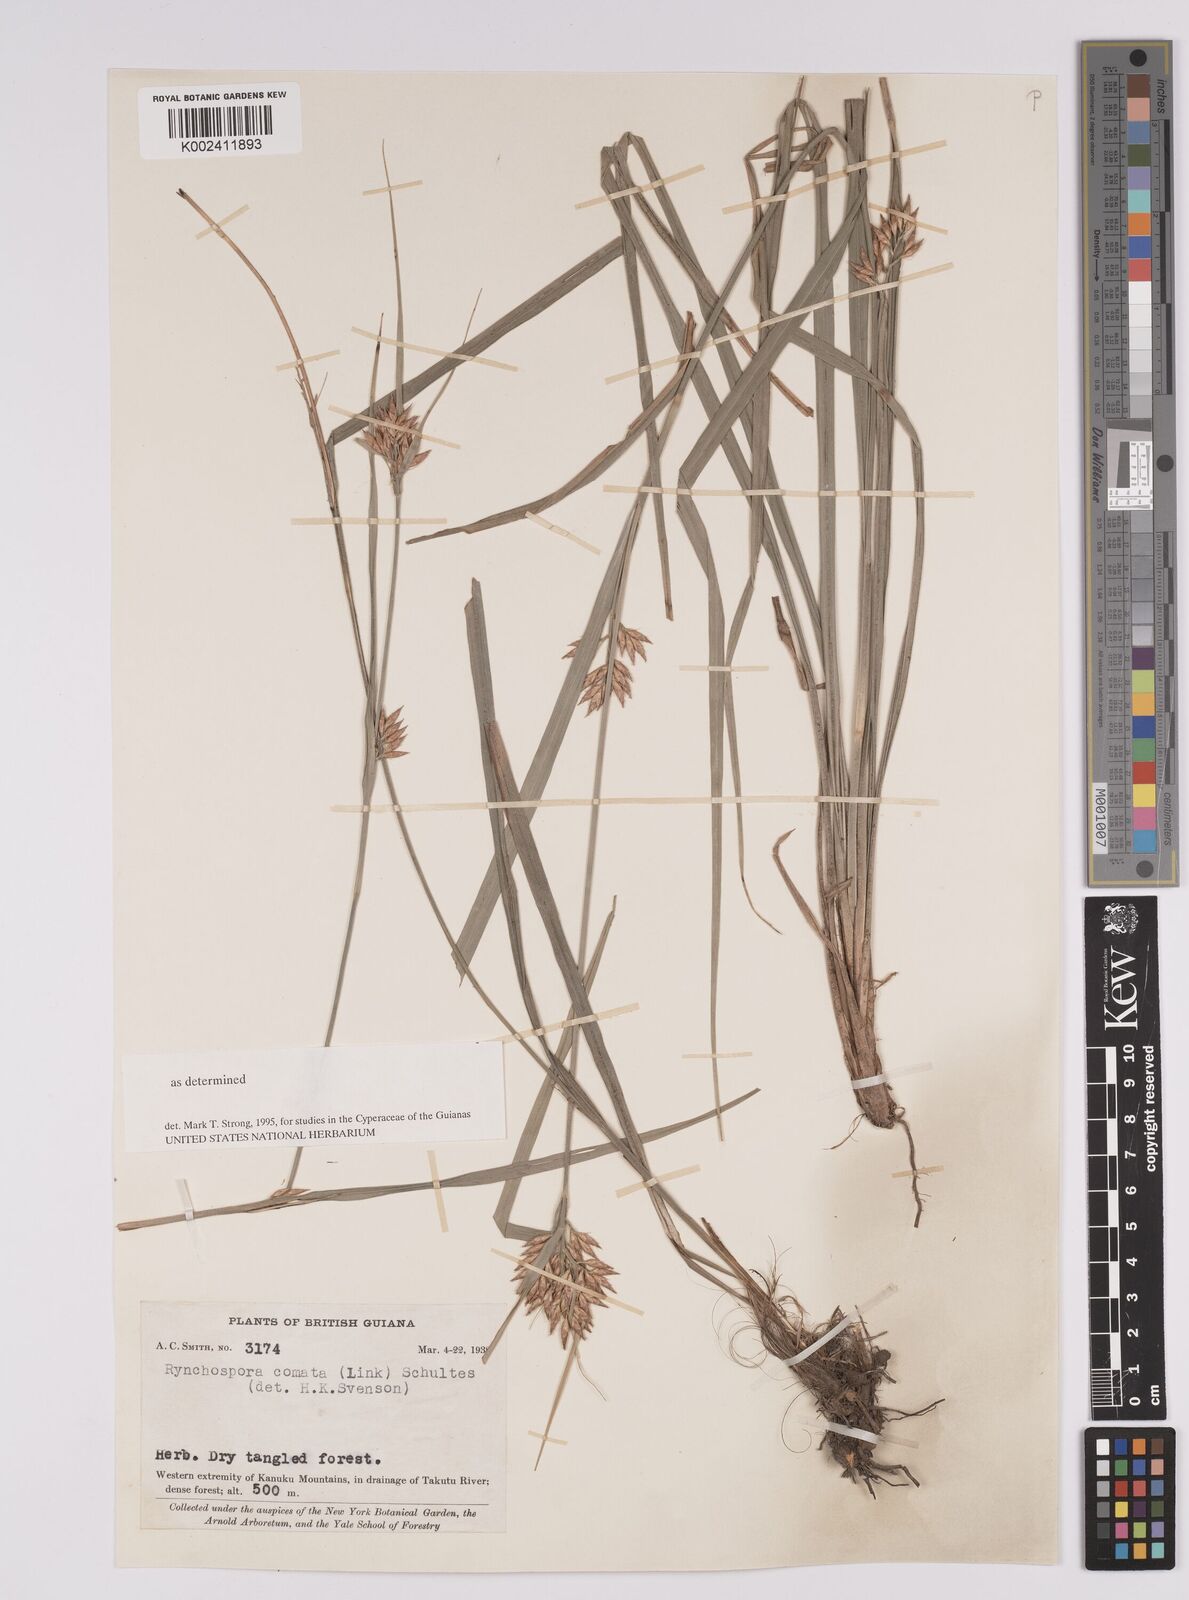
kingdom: Plantae
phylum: Tracheophyta
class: Liliopsida
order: Poales
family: Cyperaceae
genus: Rhynchospora
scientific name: Rhynchospora comata
